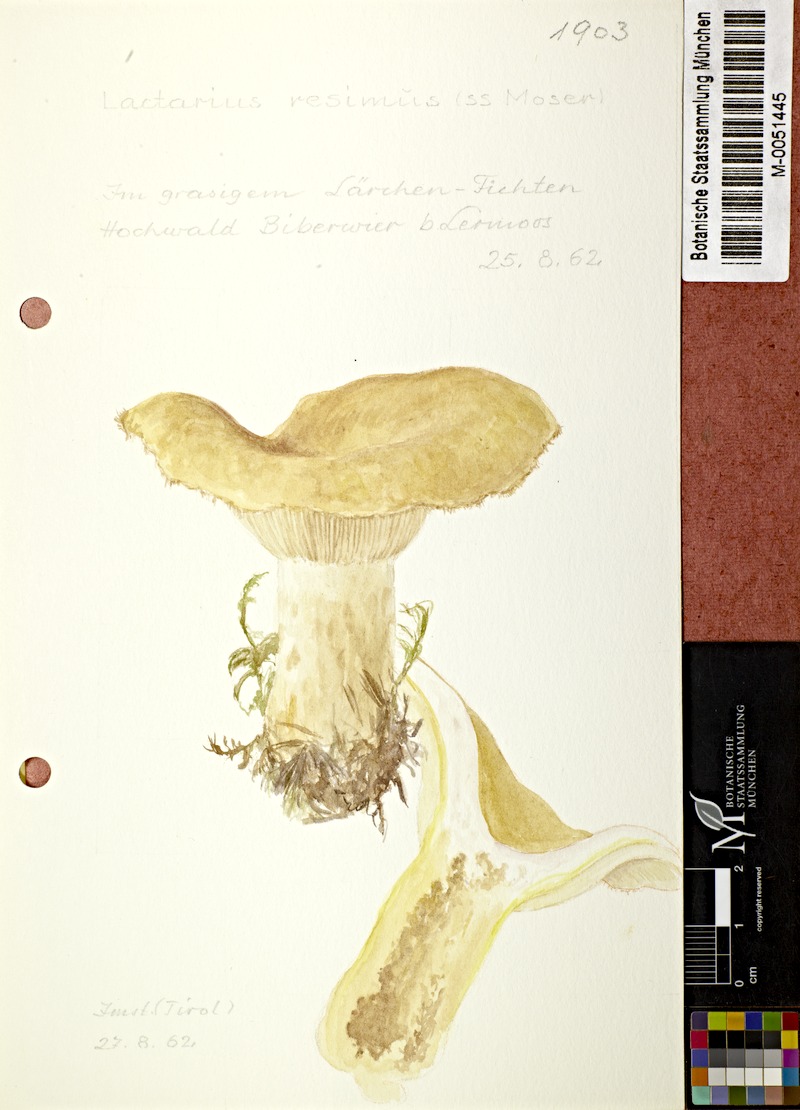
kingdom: Fungi
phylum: Basidiomycota
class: Agaricomycetes
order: Russulales
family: Russulaceae
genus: Lactarius
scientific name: Lactarius resimus
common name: Rollrim milkcap
